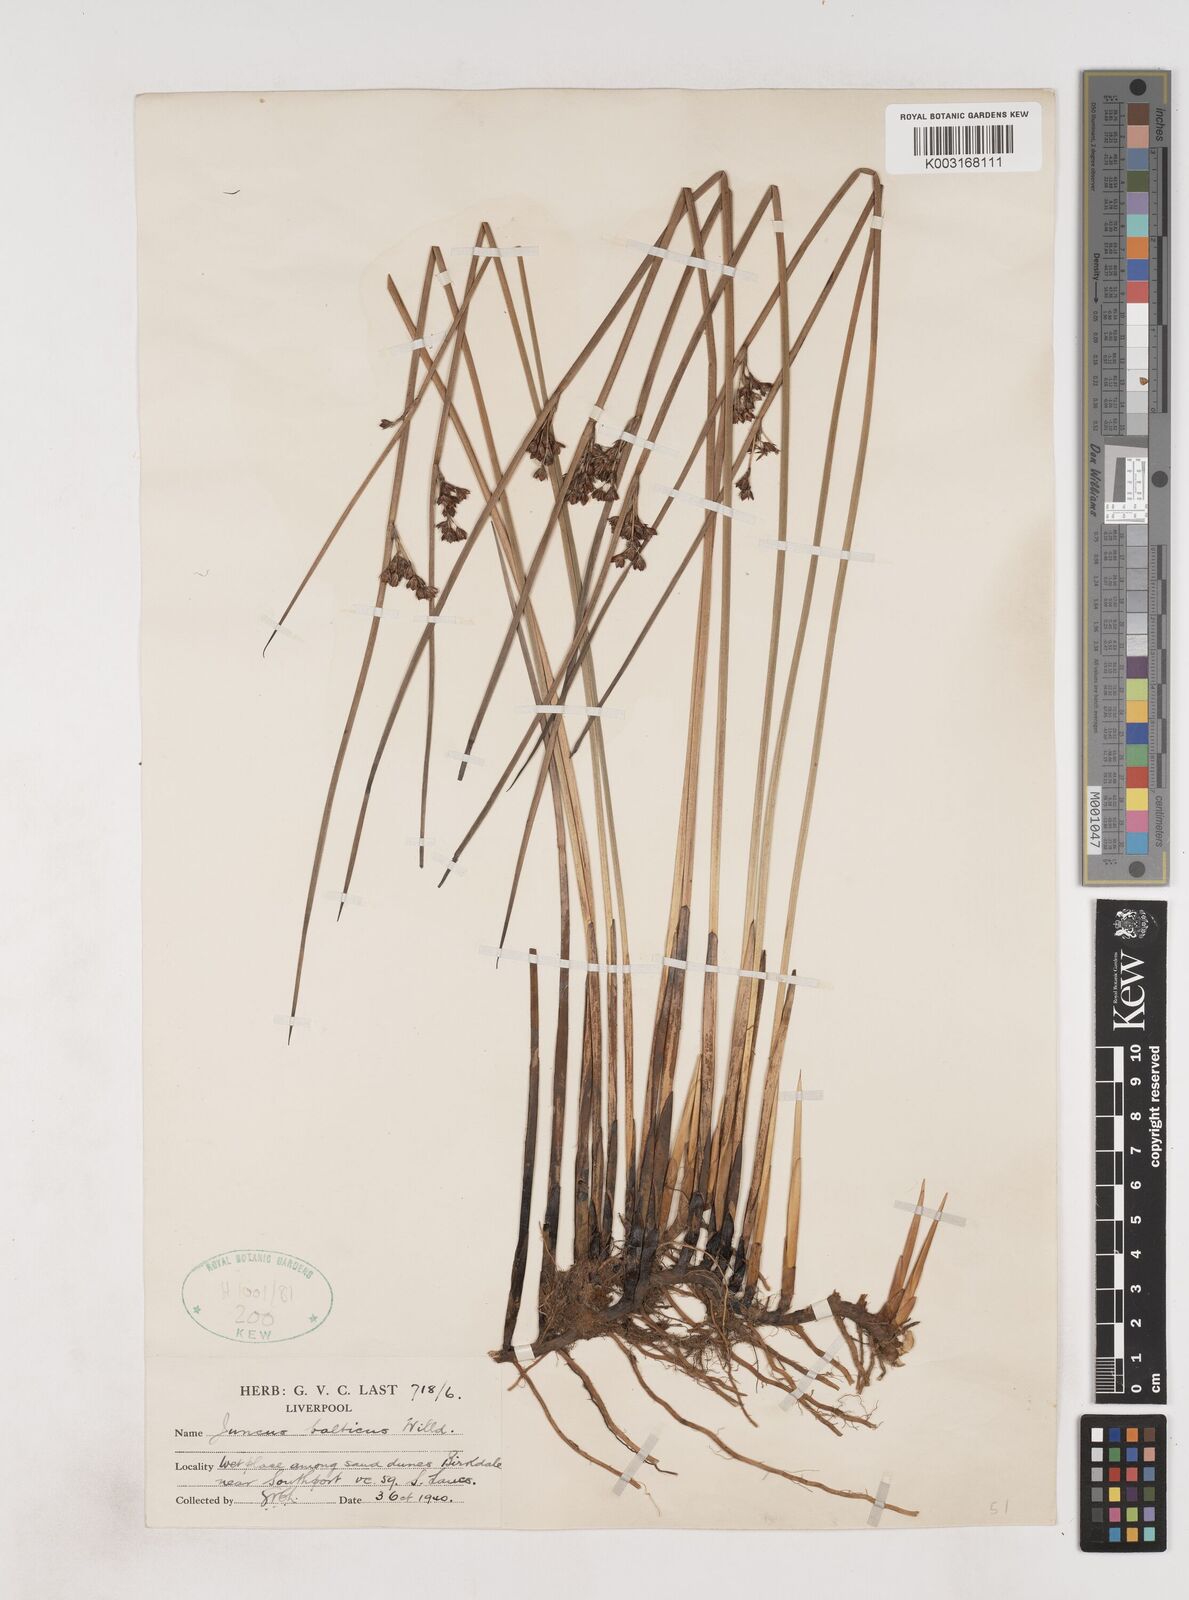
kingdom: Plantae
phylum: Tracheophyta
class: Liliopsida
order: Poales
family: Juncaceae
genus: Juncus
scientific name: Juncus balticus
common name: Baltic rush
